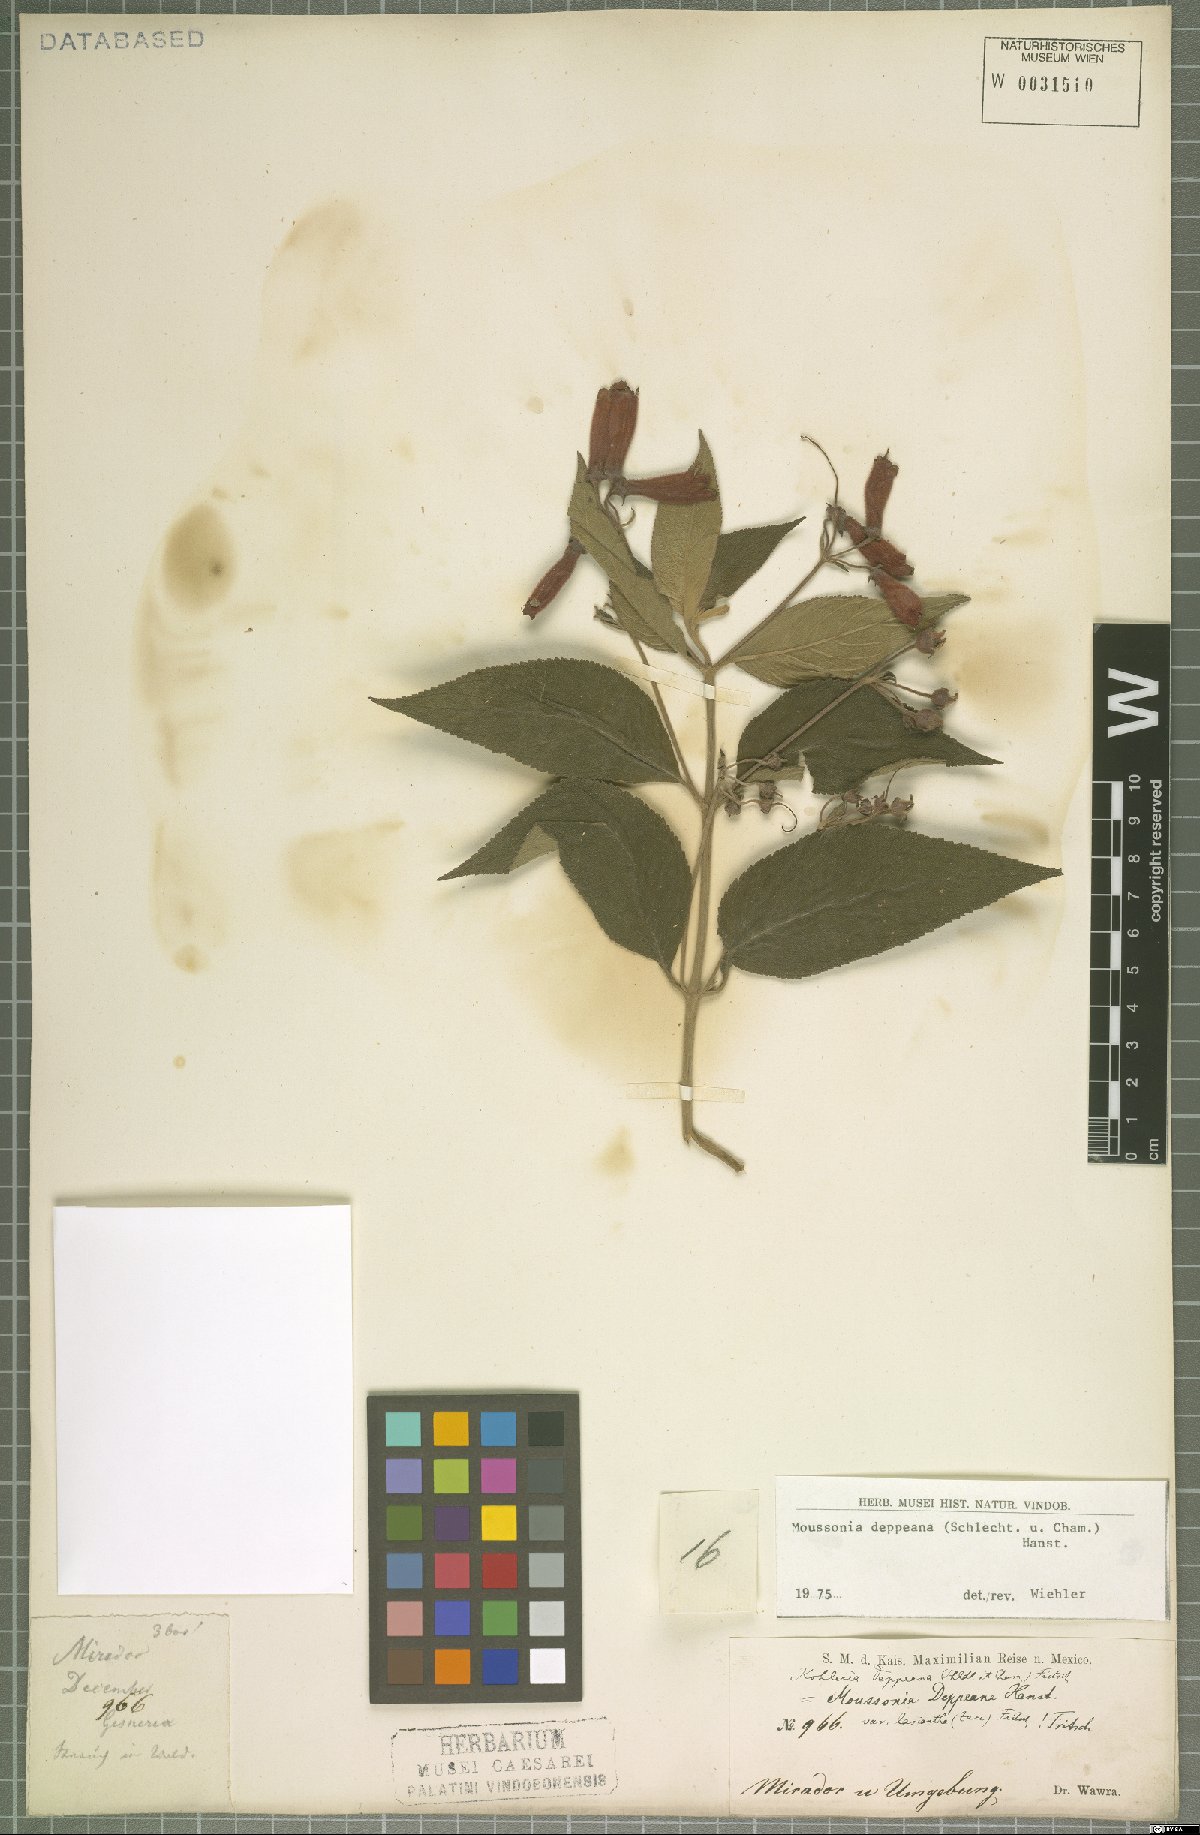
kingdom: Plantae
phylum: Tracheophyta
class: Magnoliopsida
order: Lamiales
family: Gesneriaceae
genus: Moussonia
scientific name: Moussonia deppeana
